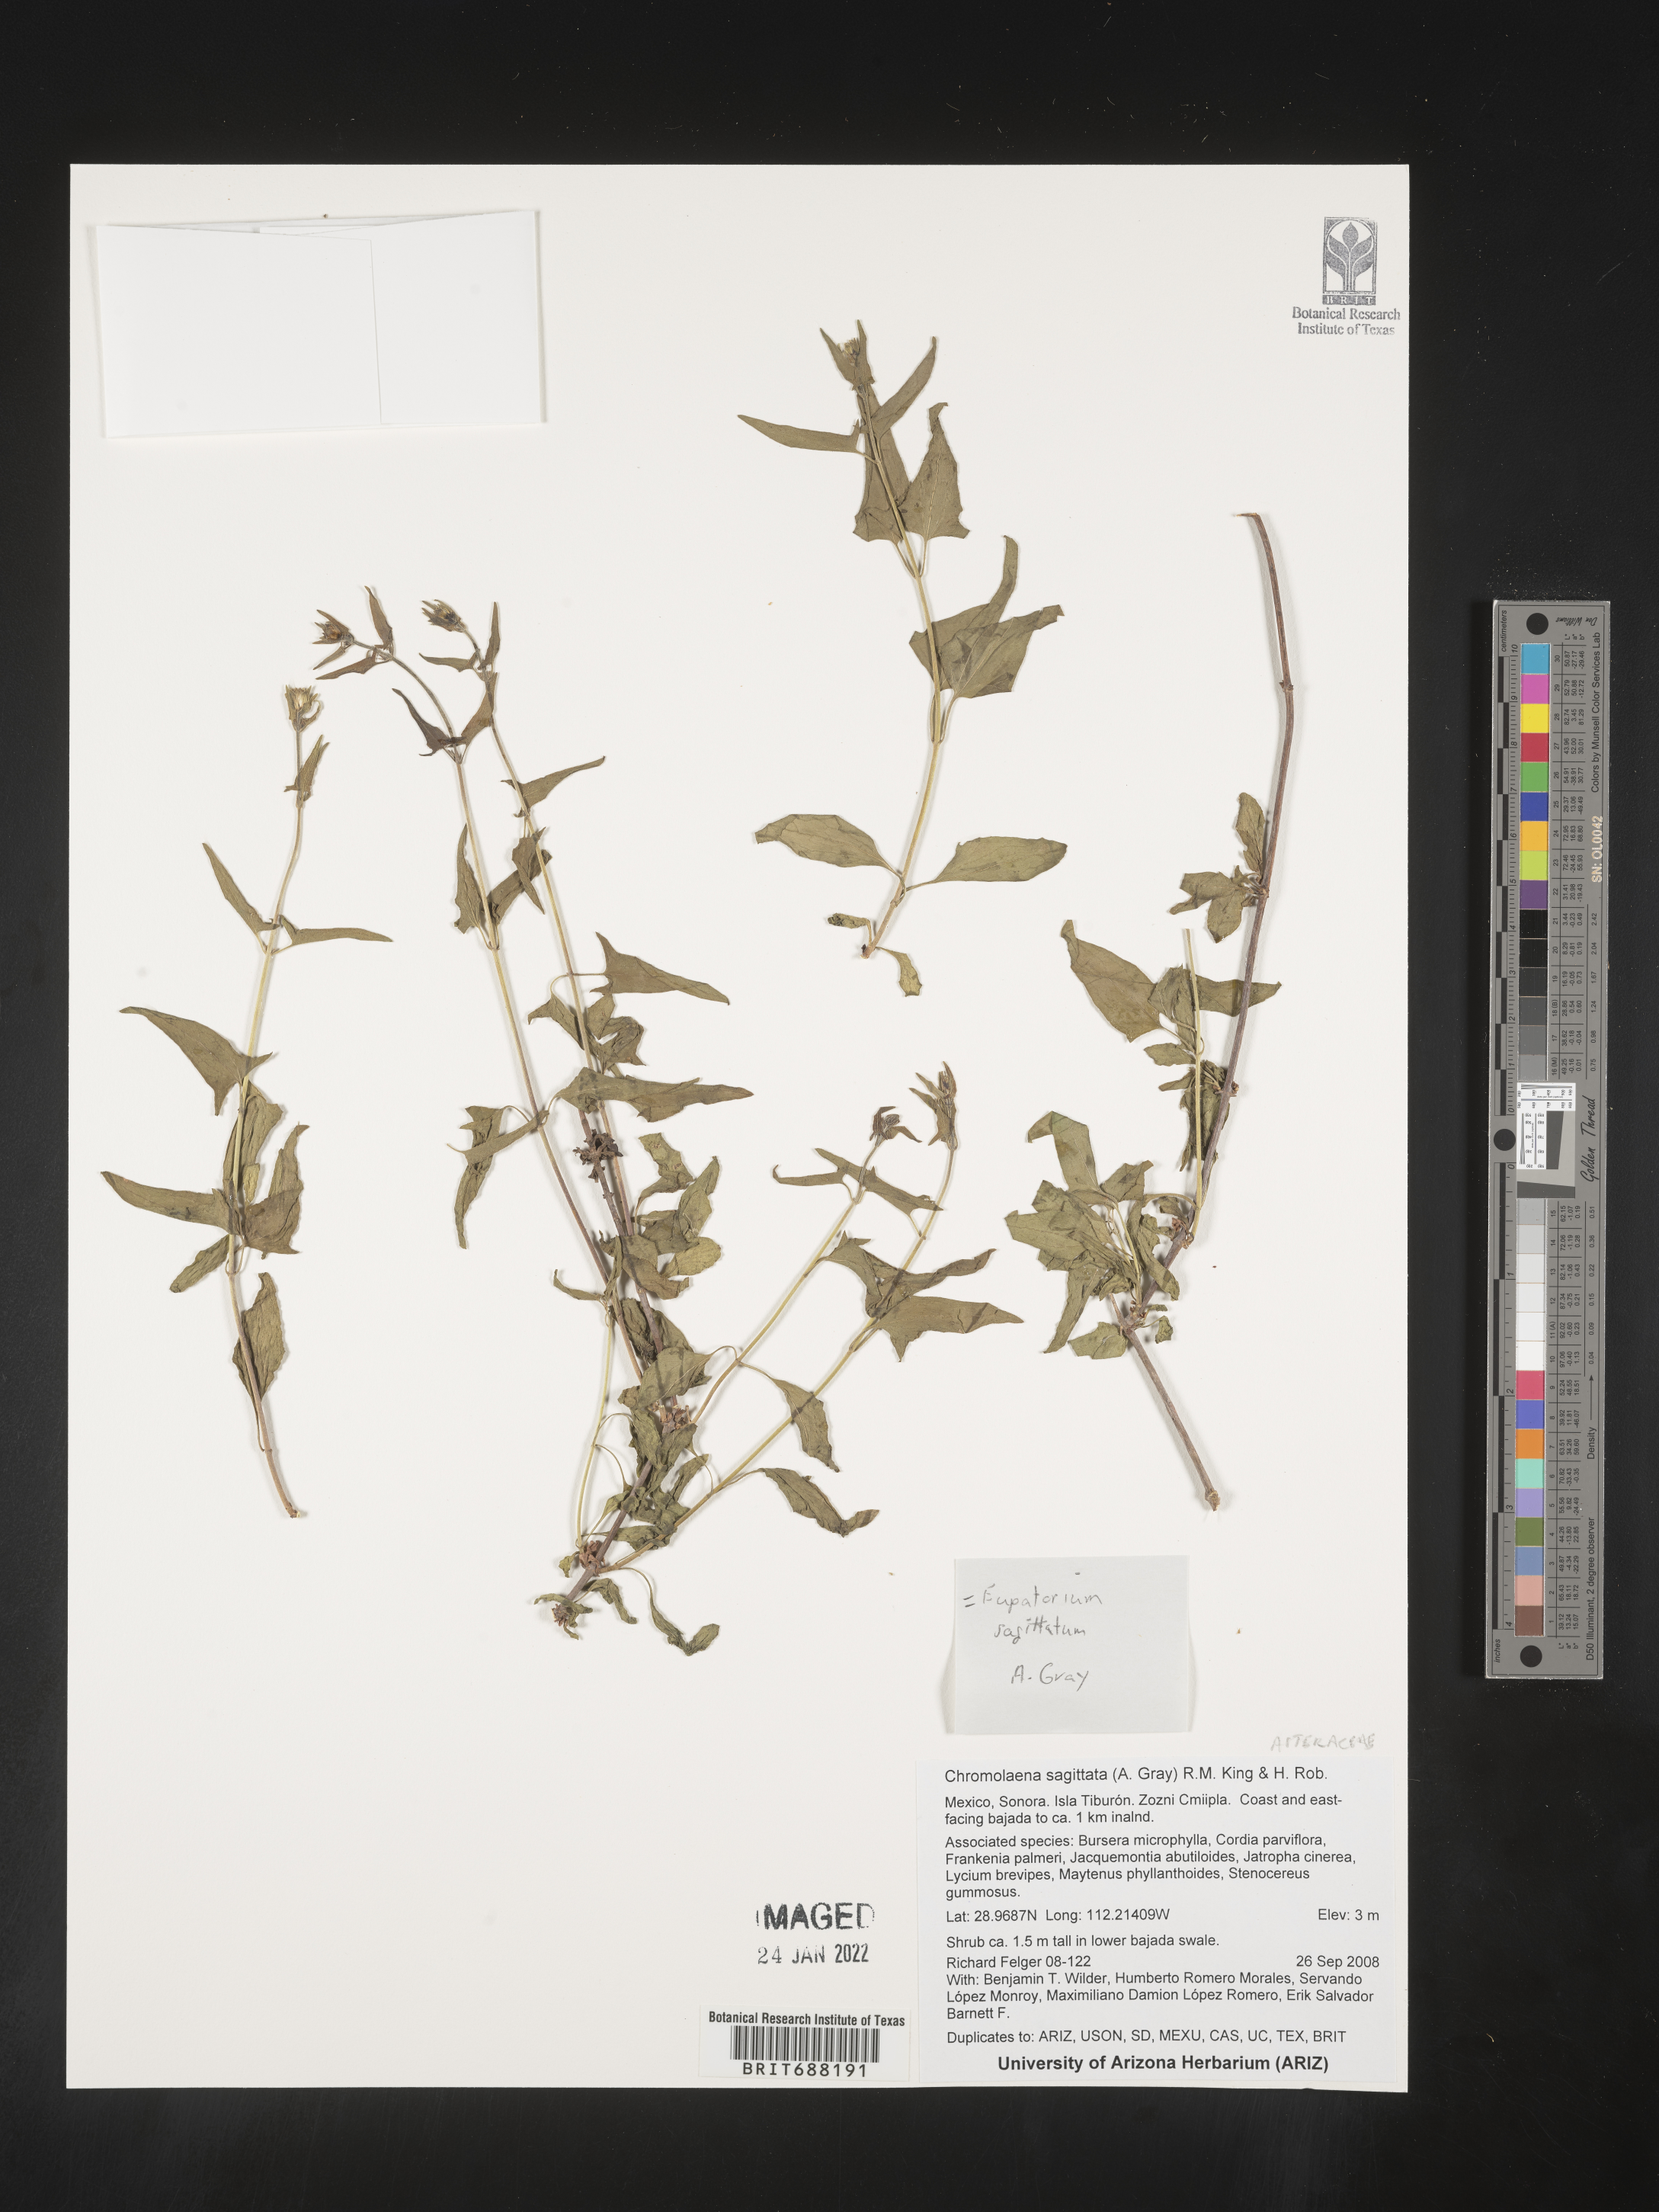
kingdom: Plantae
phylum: Tracheophyta
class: Magnoliopsida
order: Asterales
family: Asteraceae
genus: Chromolaena
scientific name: Chromolaena sagittata
